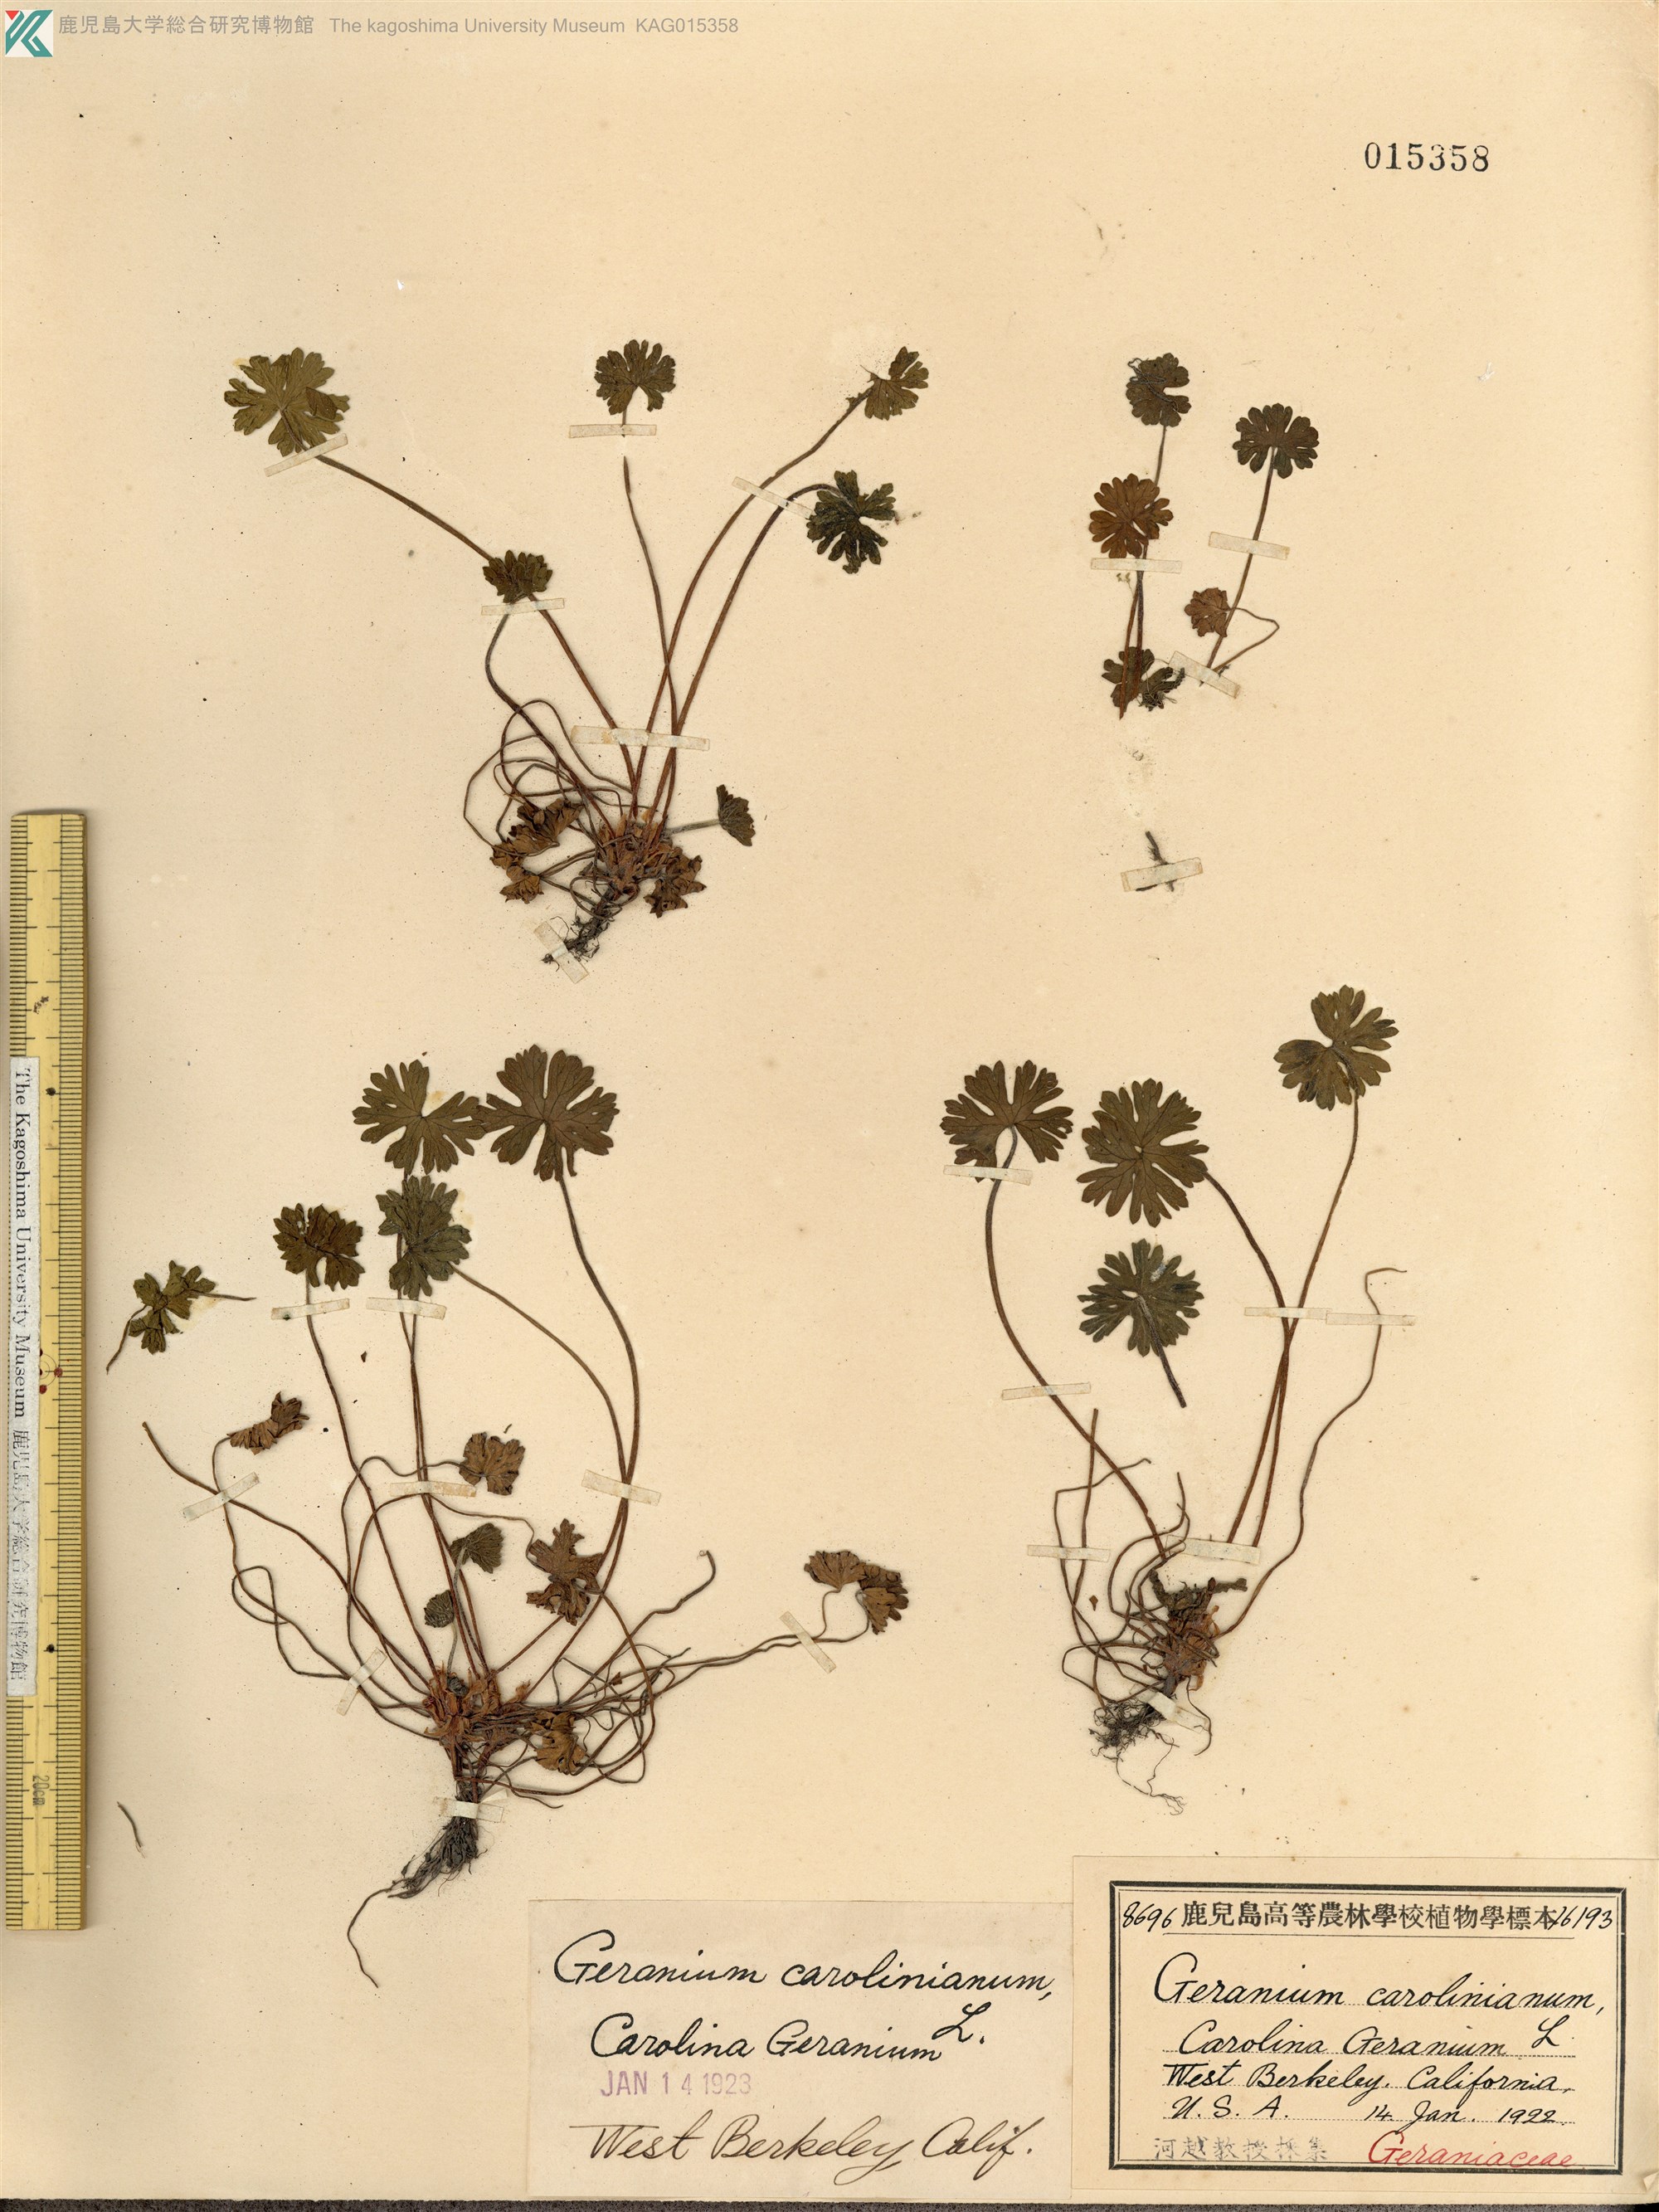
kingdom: Plantae
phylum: Tracheophyta
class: Magnoliopsida
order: Geraniales
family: Geraniaceae
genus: Geranium
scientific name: Geranium carolinianum
